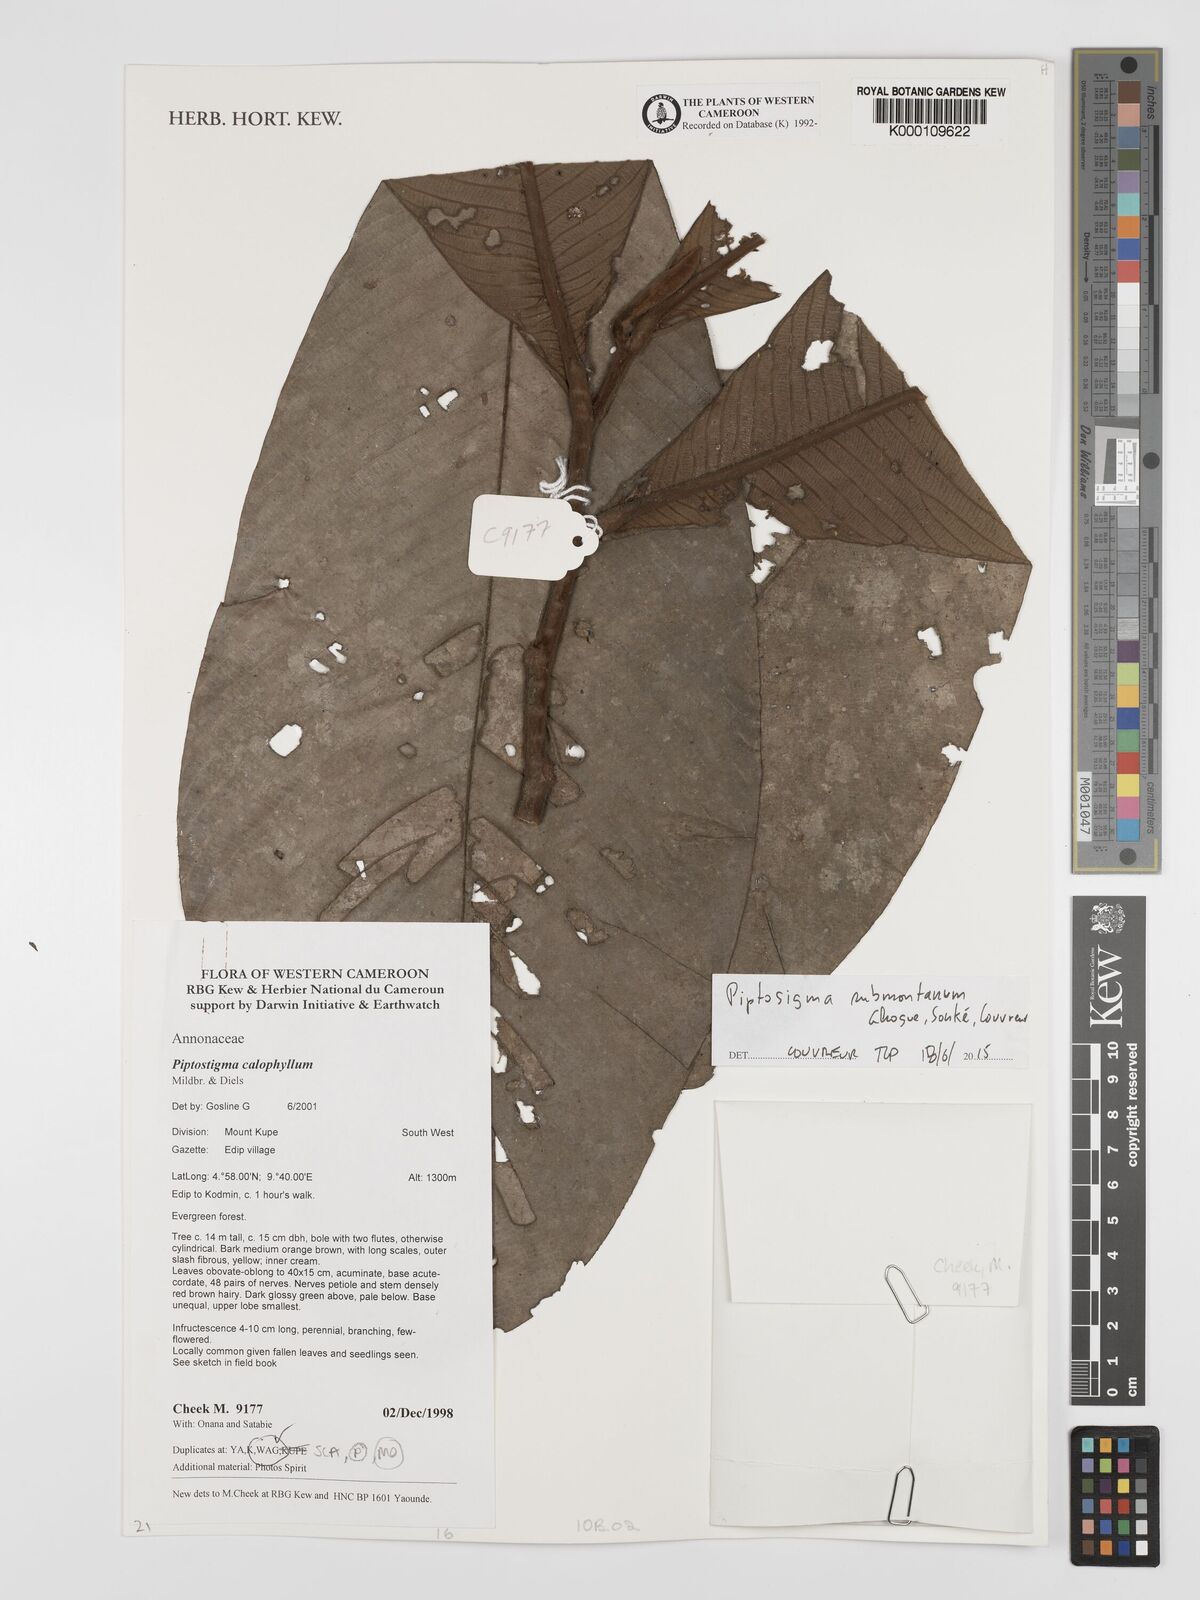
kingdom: Plantae
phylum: Tracheophyta
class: Magnoliopsida
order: Magnoliales
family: Annonaceae
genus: Piptostigma
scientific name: Piptostigma calophyllum
